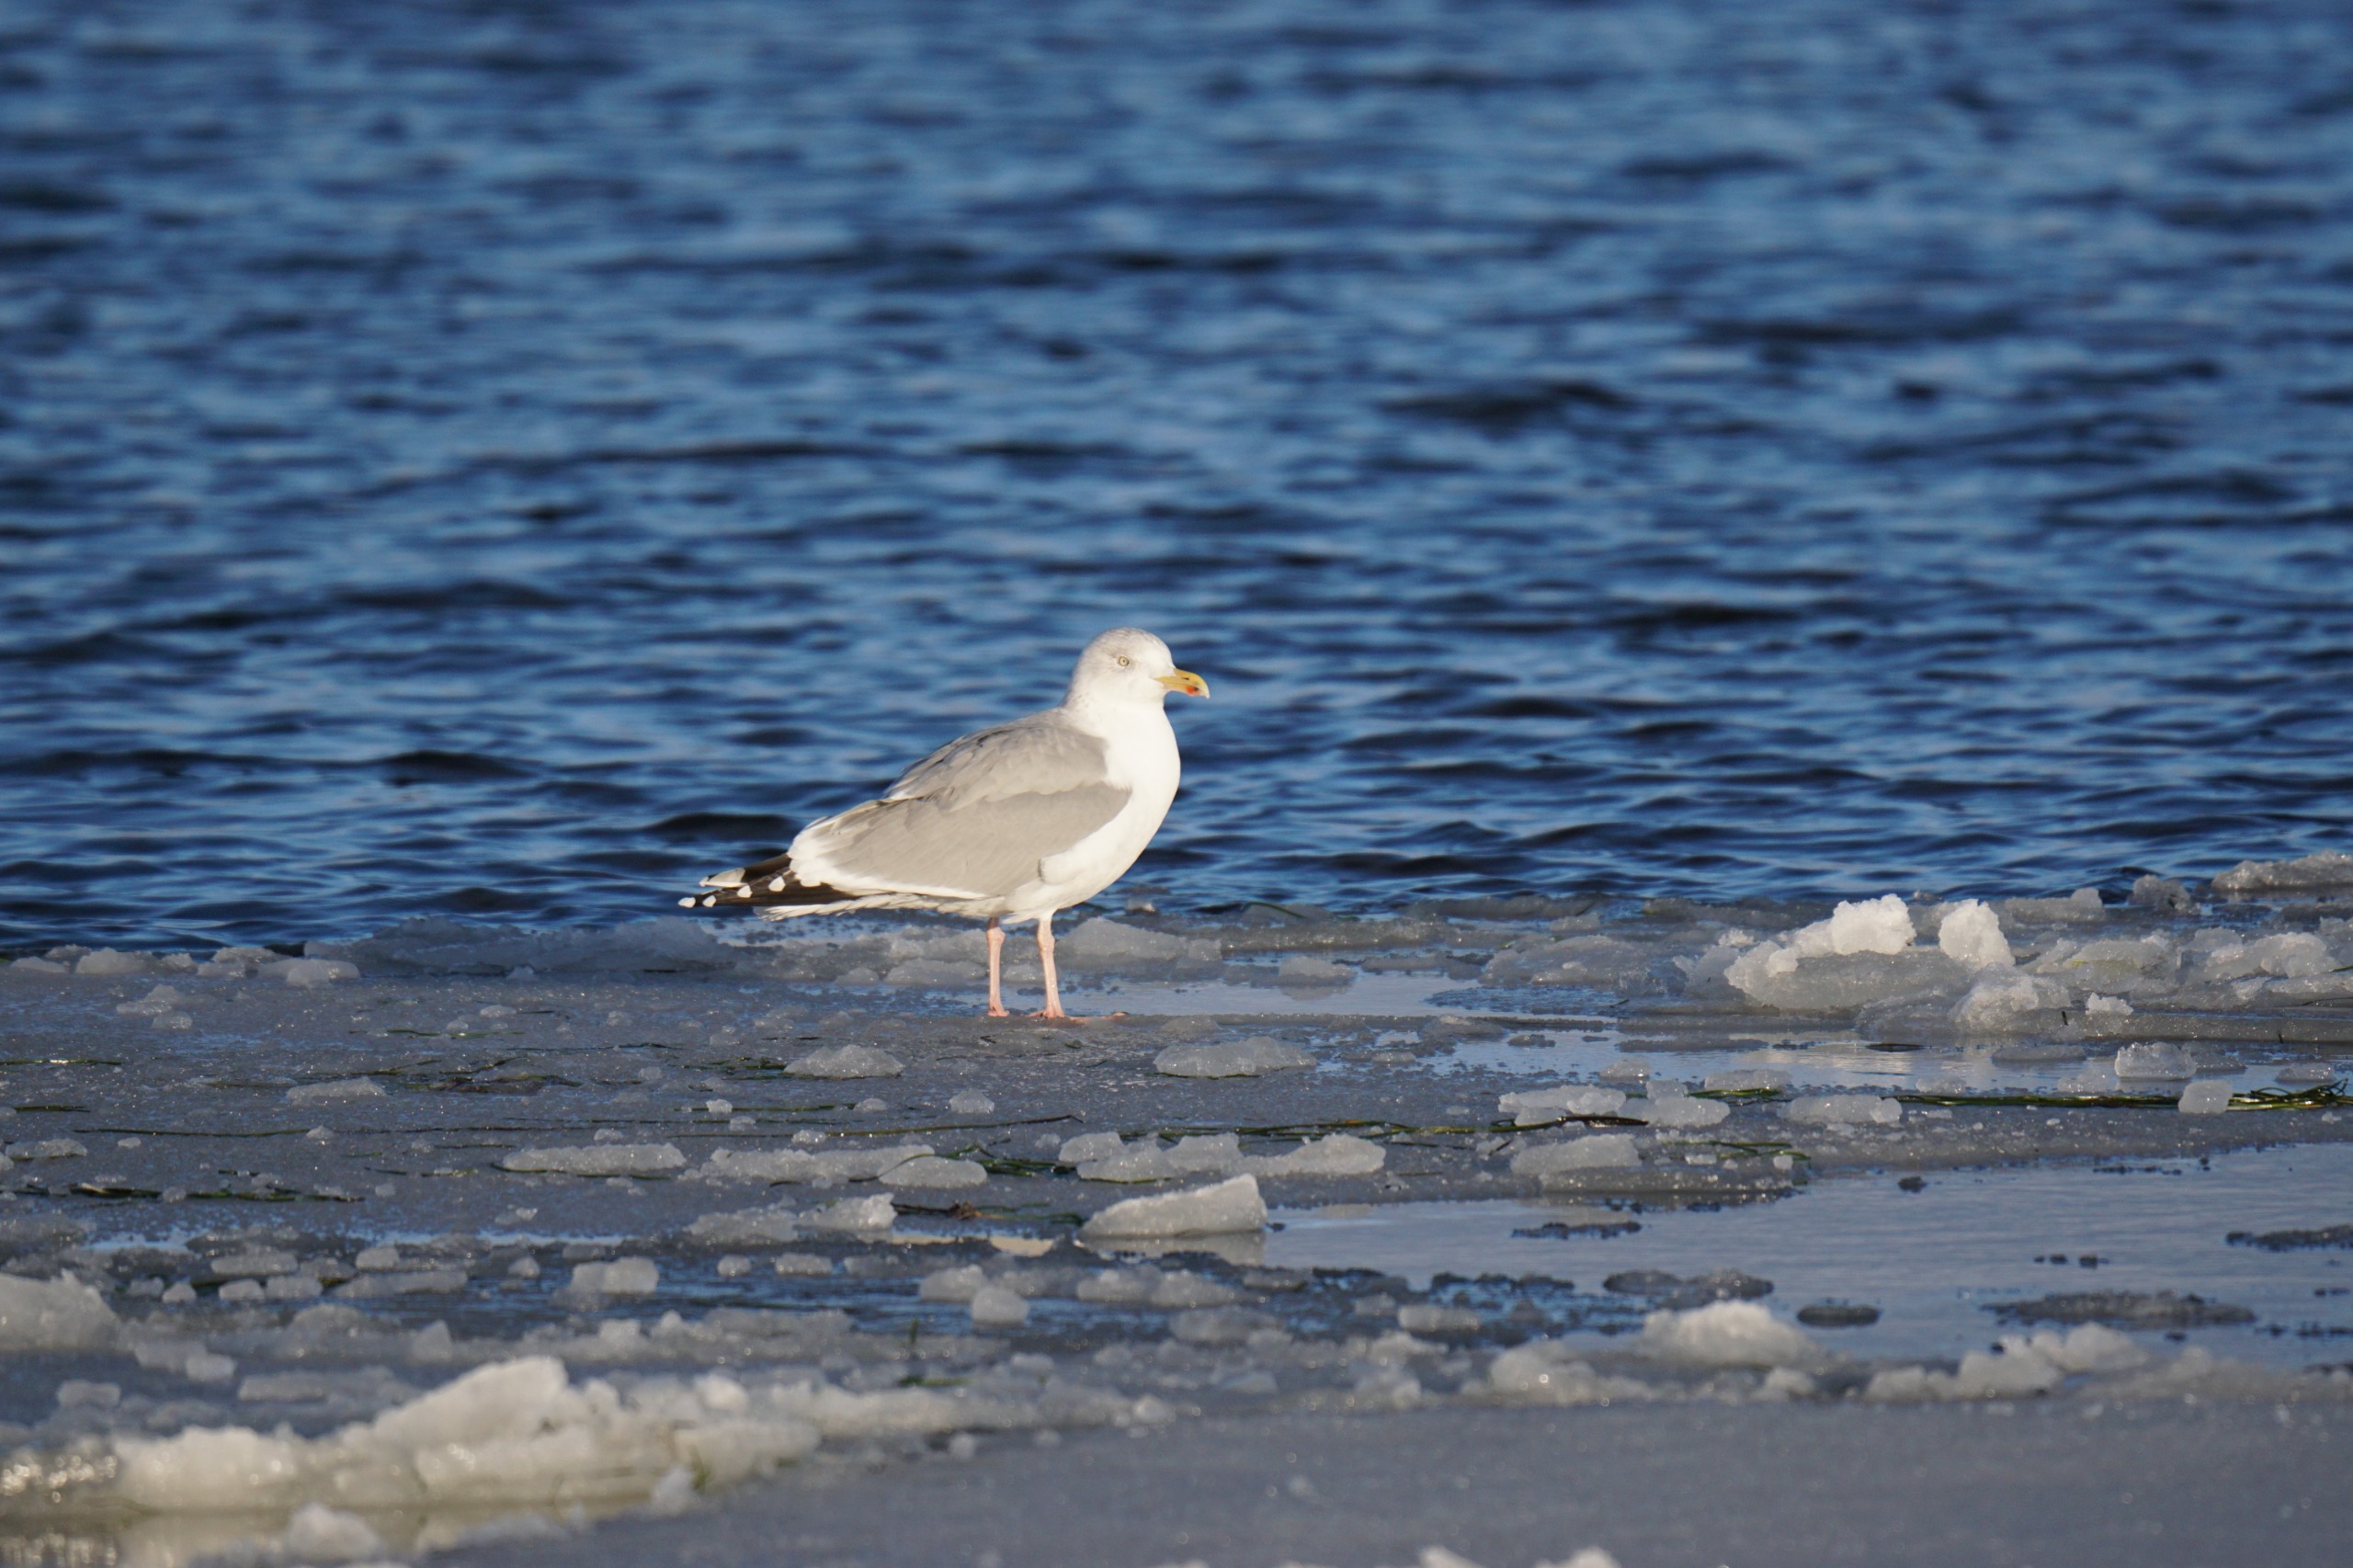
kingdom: Animalia
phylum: Chordata
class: Aves
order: Charadriiformes
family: Laridae
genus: Larus
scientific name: Larus argentatus
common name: Sølvmåge
